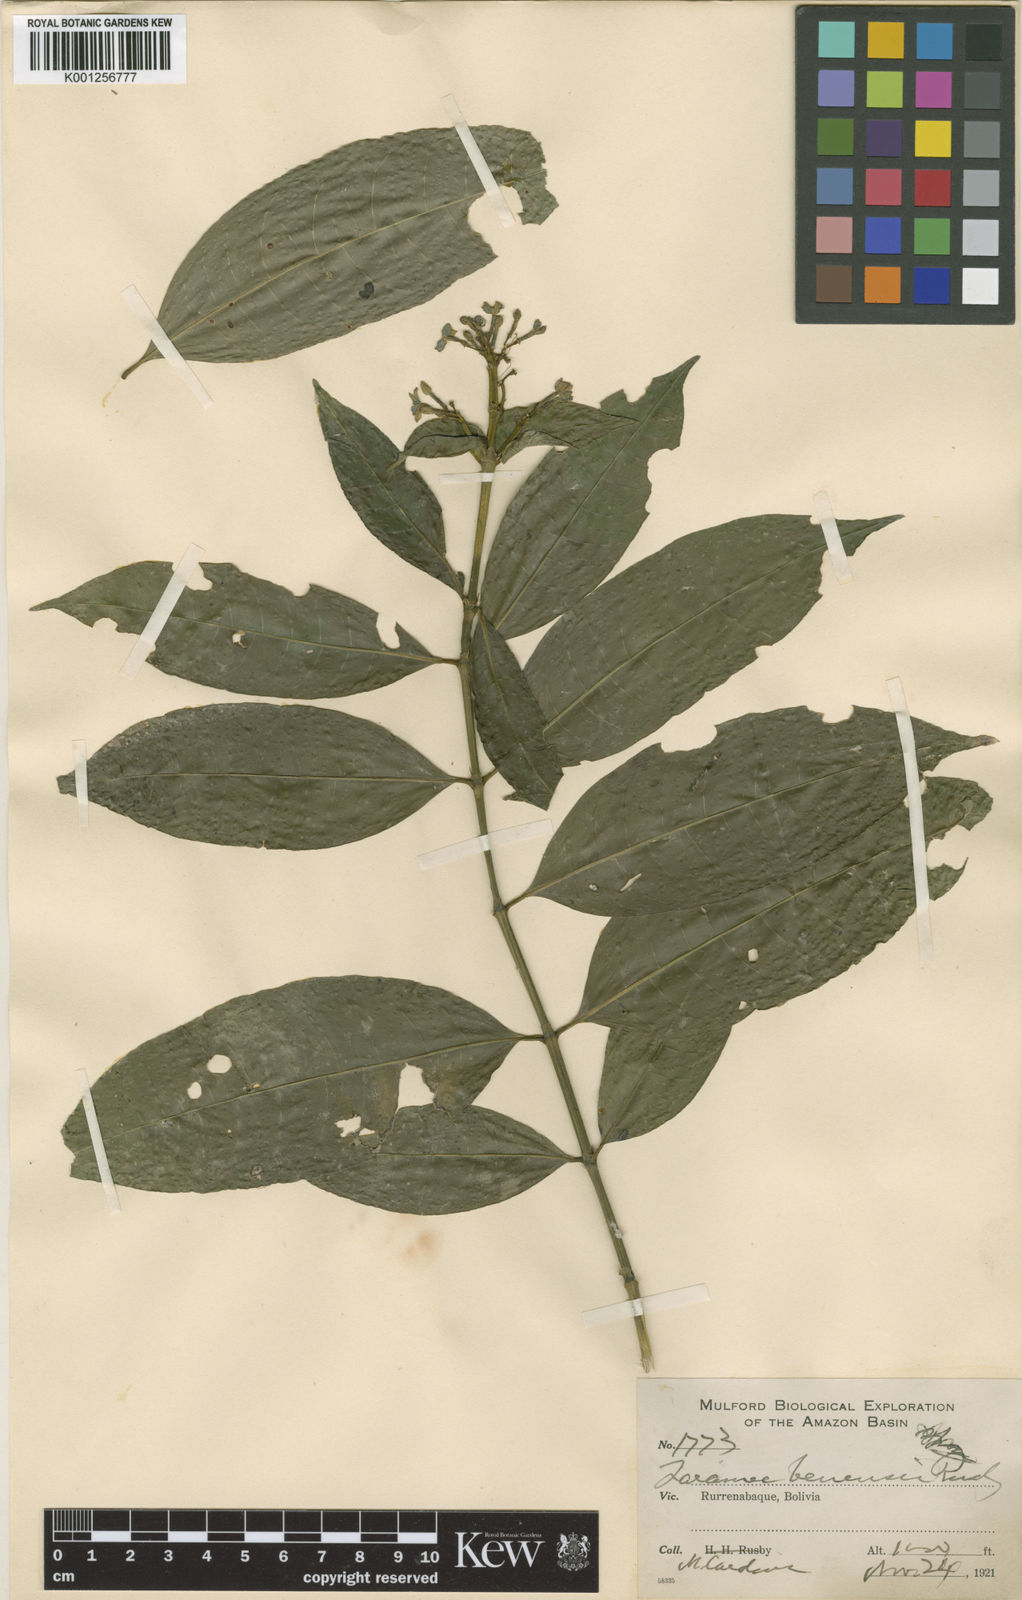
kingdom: Plantae
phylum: Tracheophyta
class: Magnoliopsida
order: Gentianales
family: Rubiaceae
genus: Faramea
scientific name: Faramea multiflora
